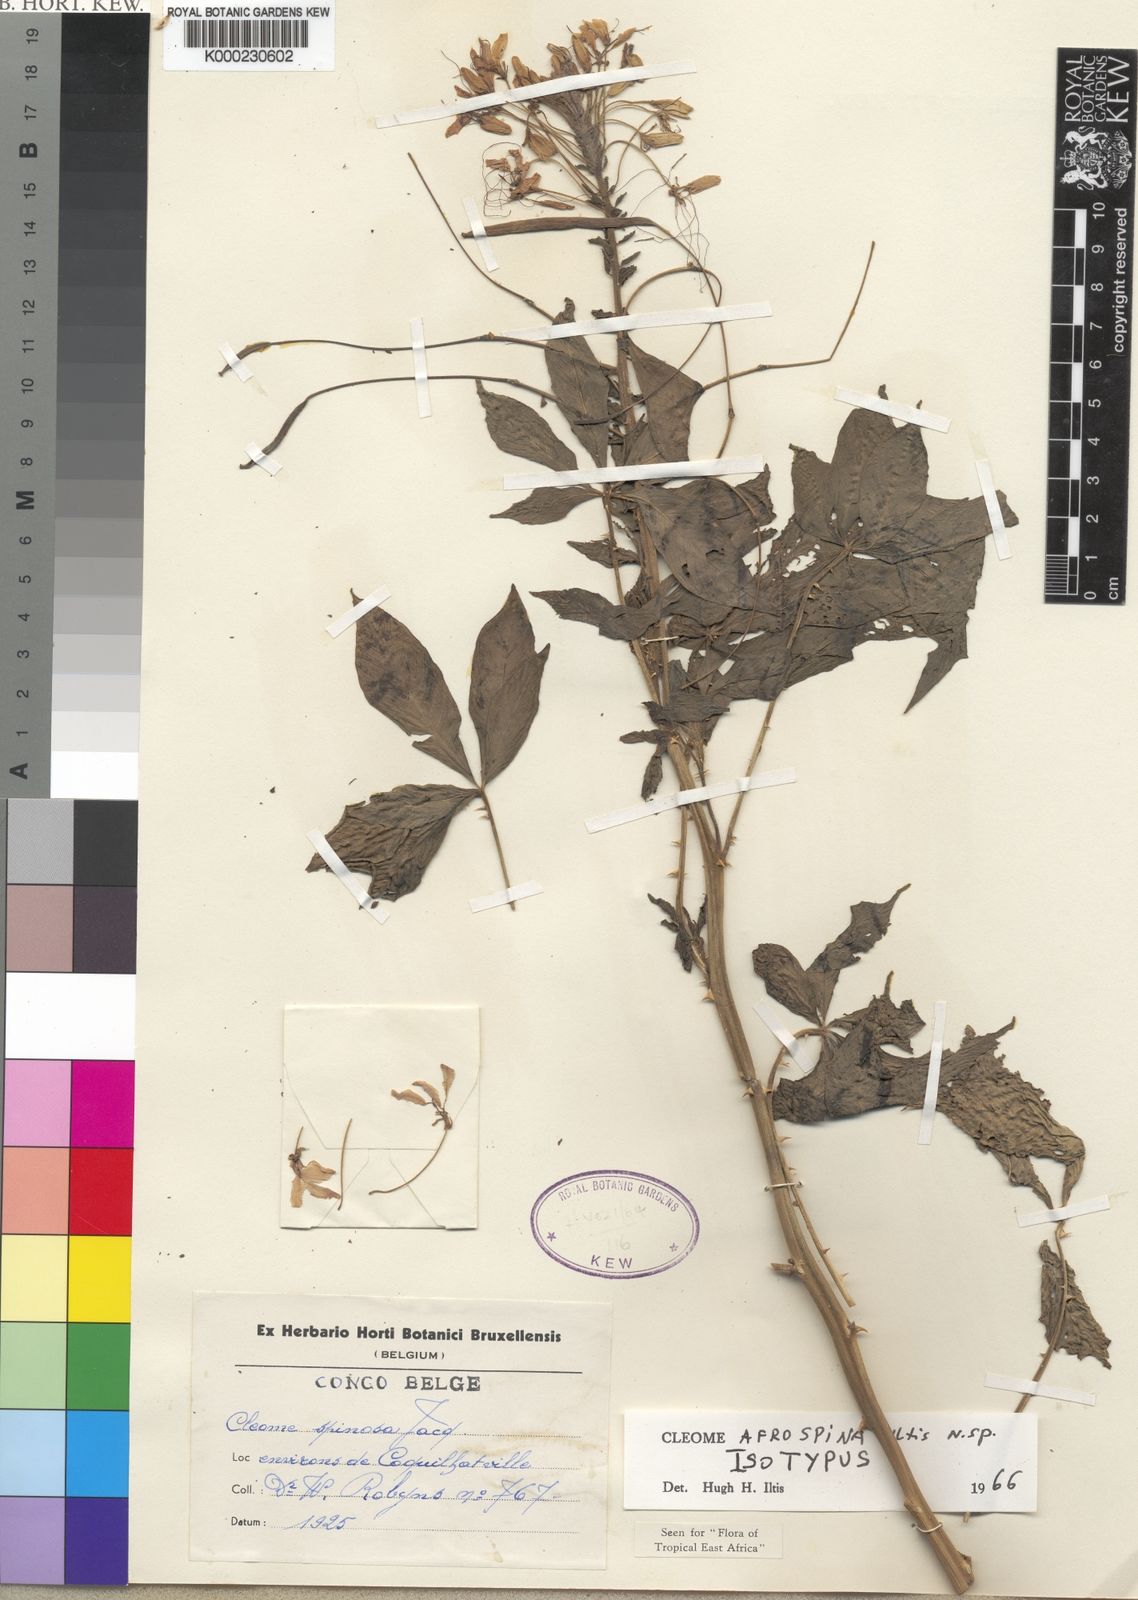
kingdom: Plantae
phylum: Tracheophyta
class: Magnoliopsida
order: Brassicales
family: Cleomaceae
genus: Tarenaya
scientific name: Tarenaya afrospina
